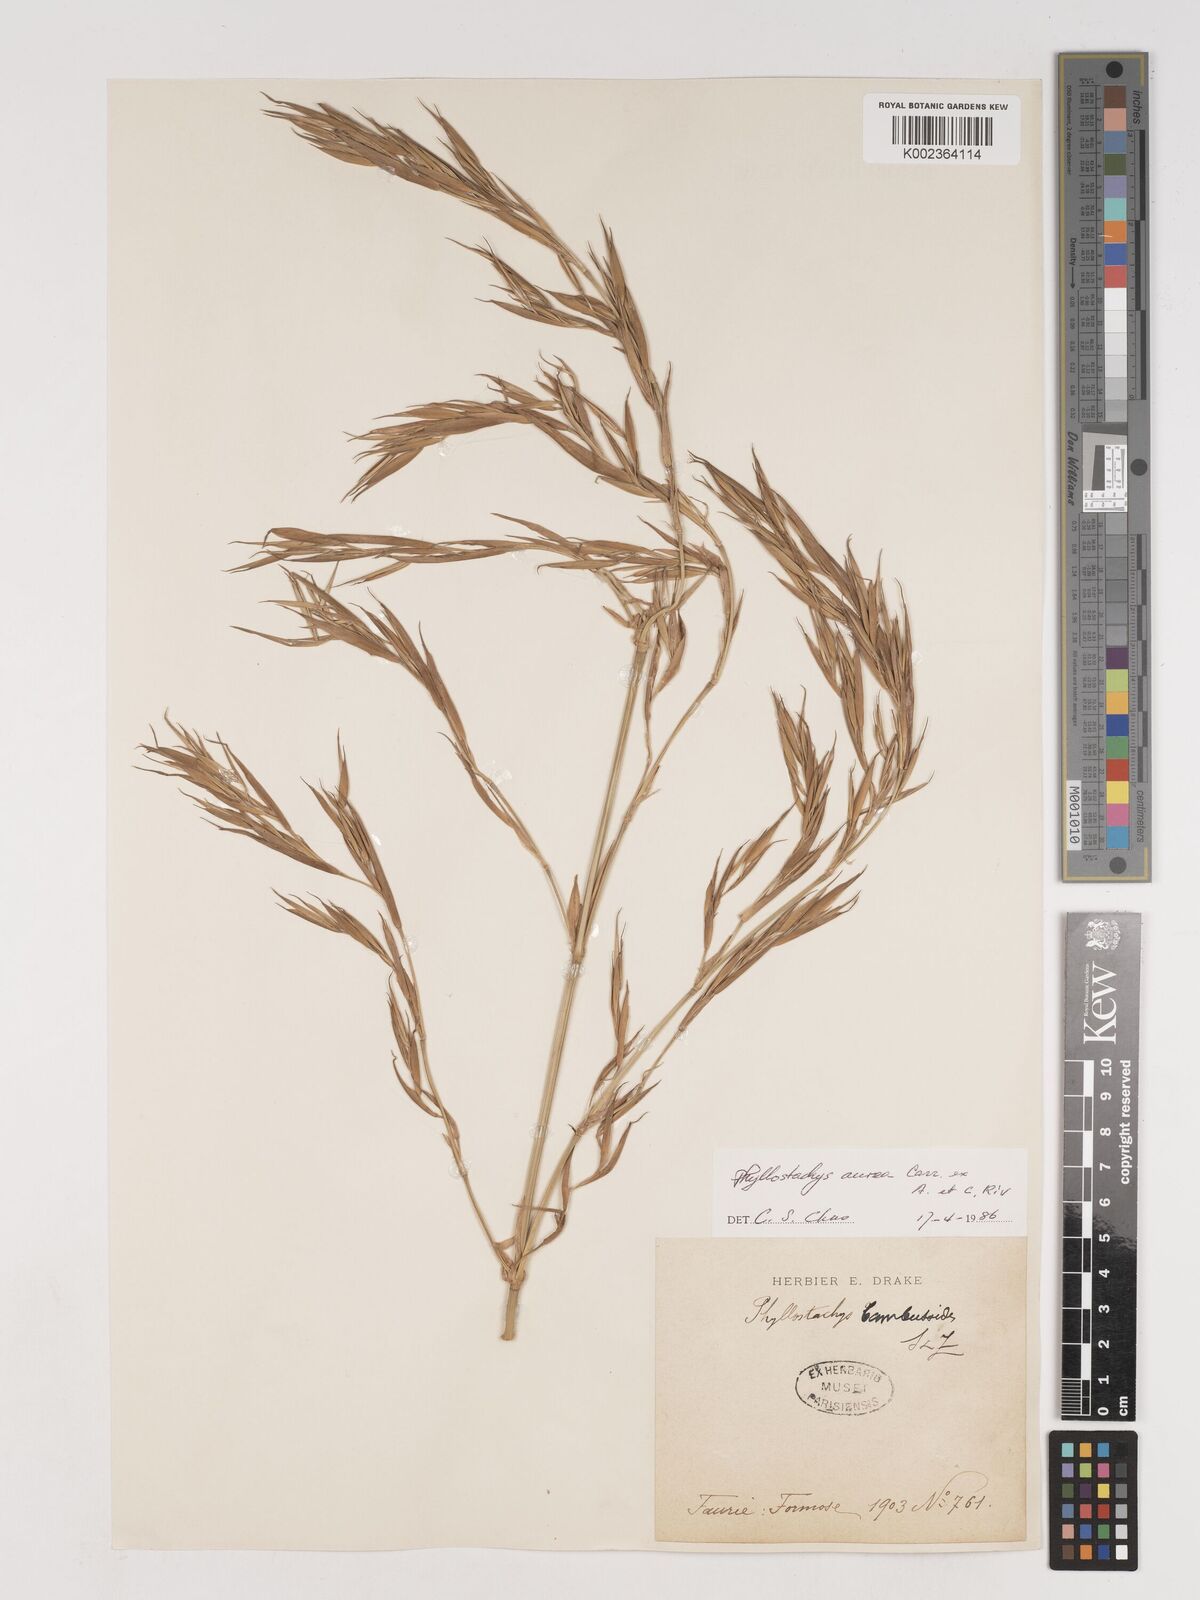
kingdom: Plantae
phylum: Tracheophyta
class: Liliopsida
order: Poales
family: Poaceae
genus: Phyllostachys
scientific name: Phyllostachys aurea
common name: Golden bamboo
